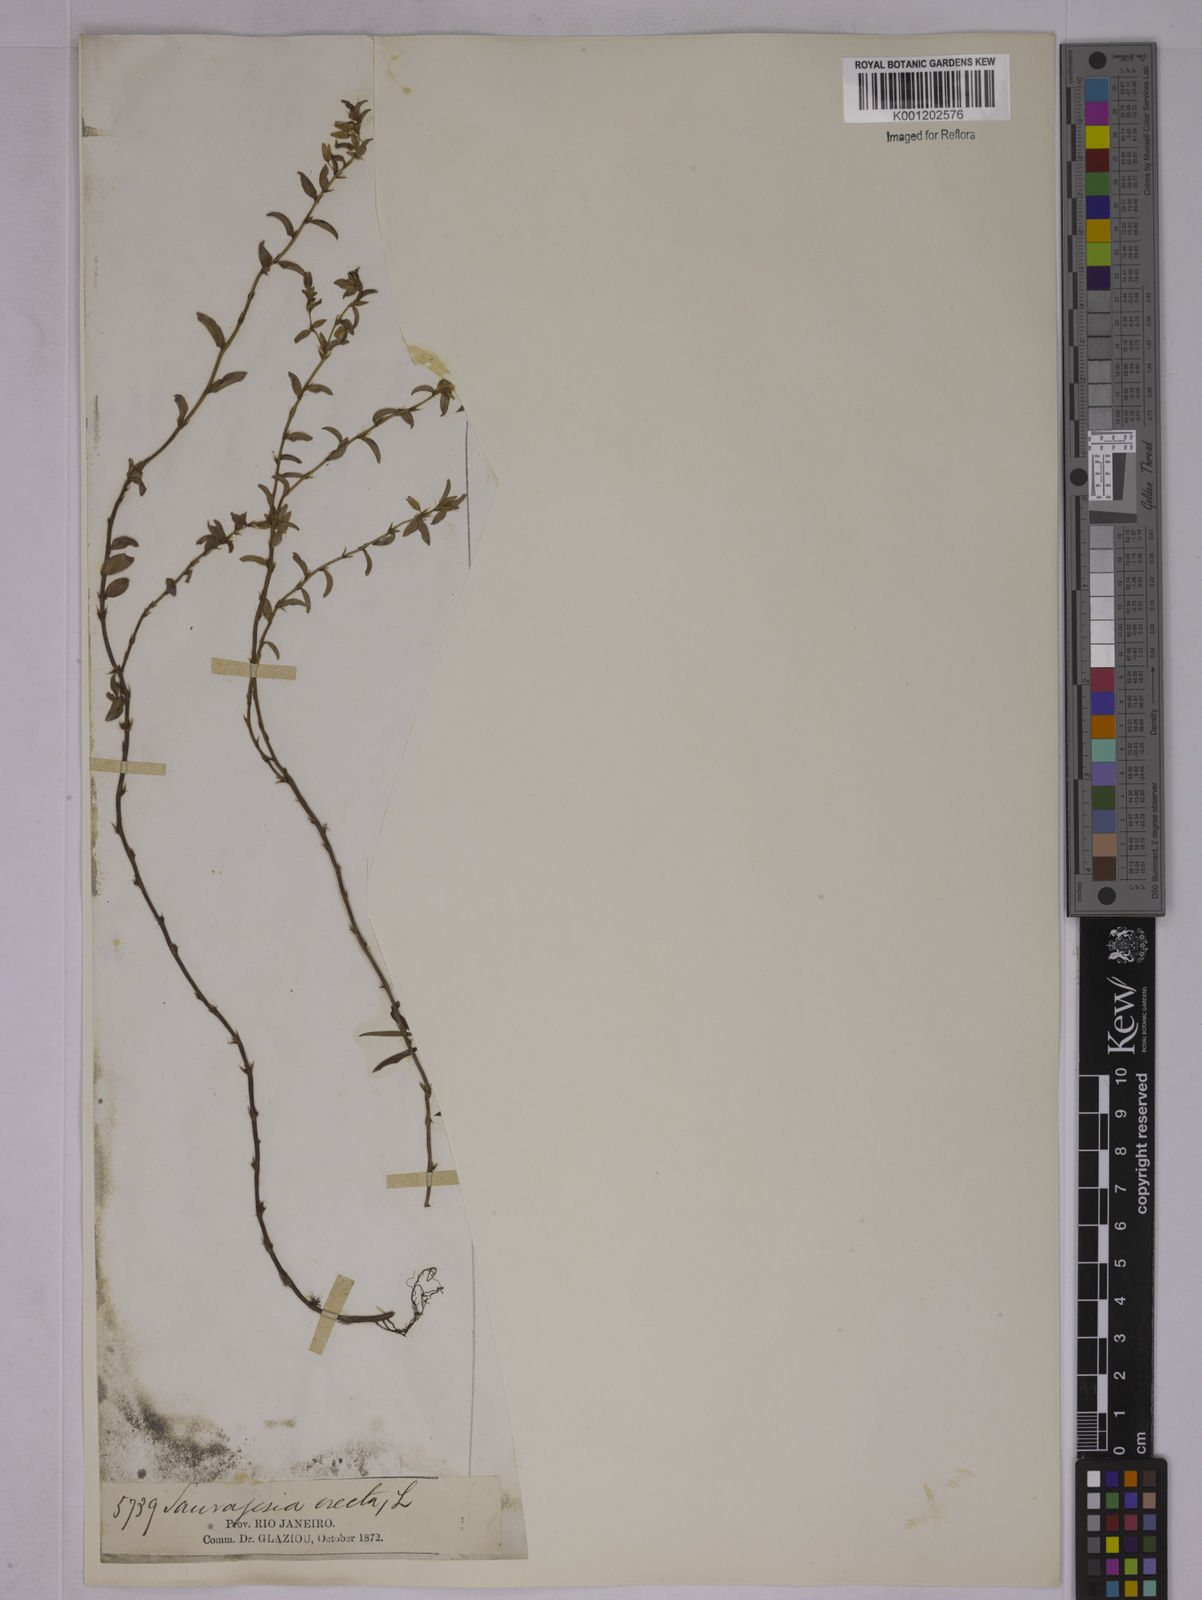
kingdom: Plantae
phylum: Tracheophyta
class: Magnoliopsida
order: Malpighiales
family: Ochnaceae
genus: Sauvagesia
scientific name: Sauvagesia erecta
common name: Creole tea
